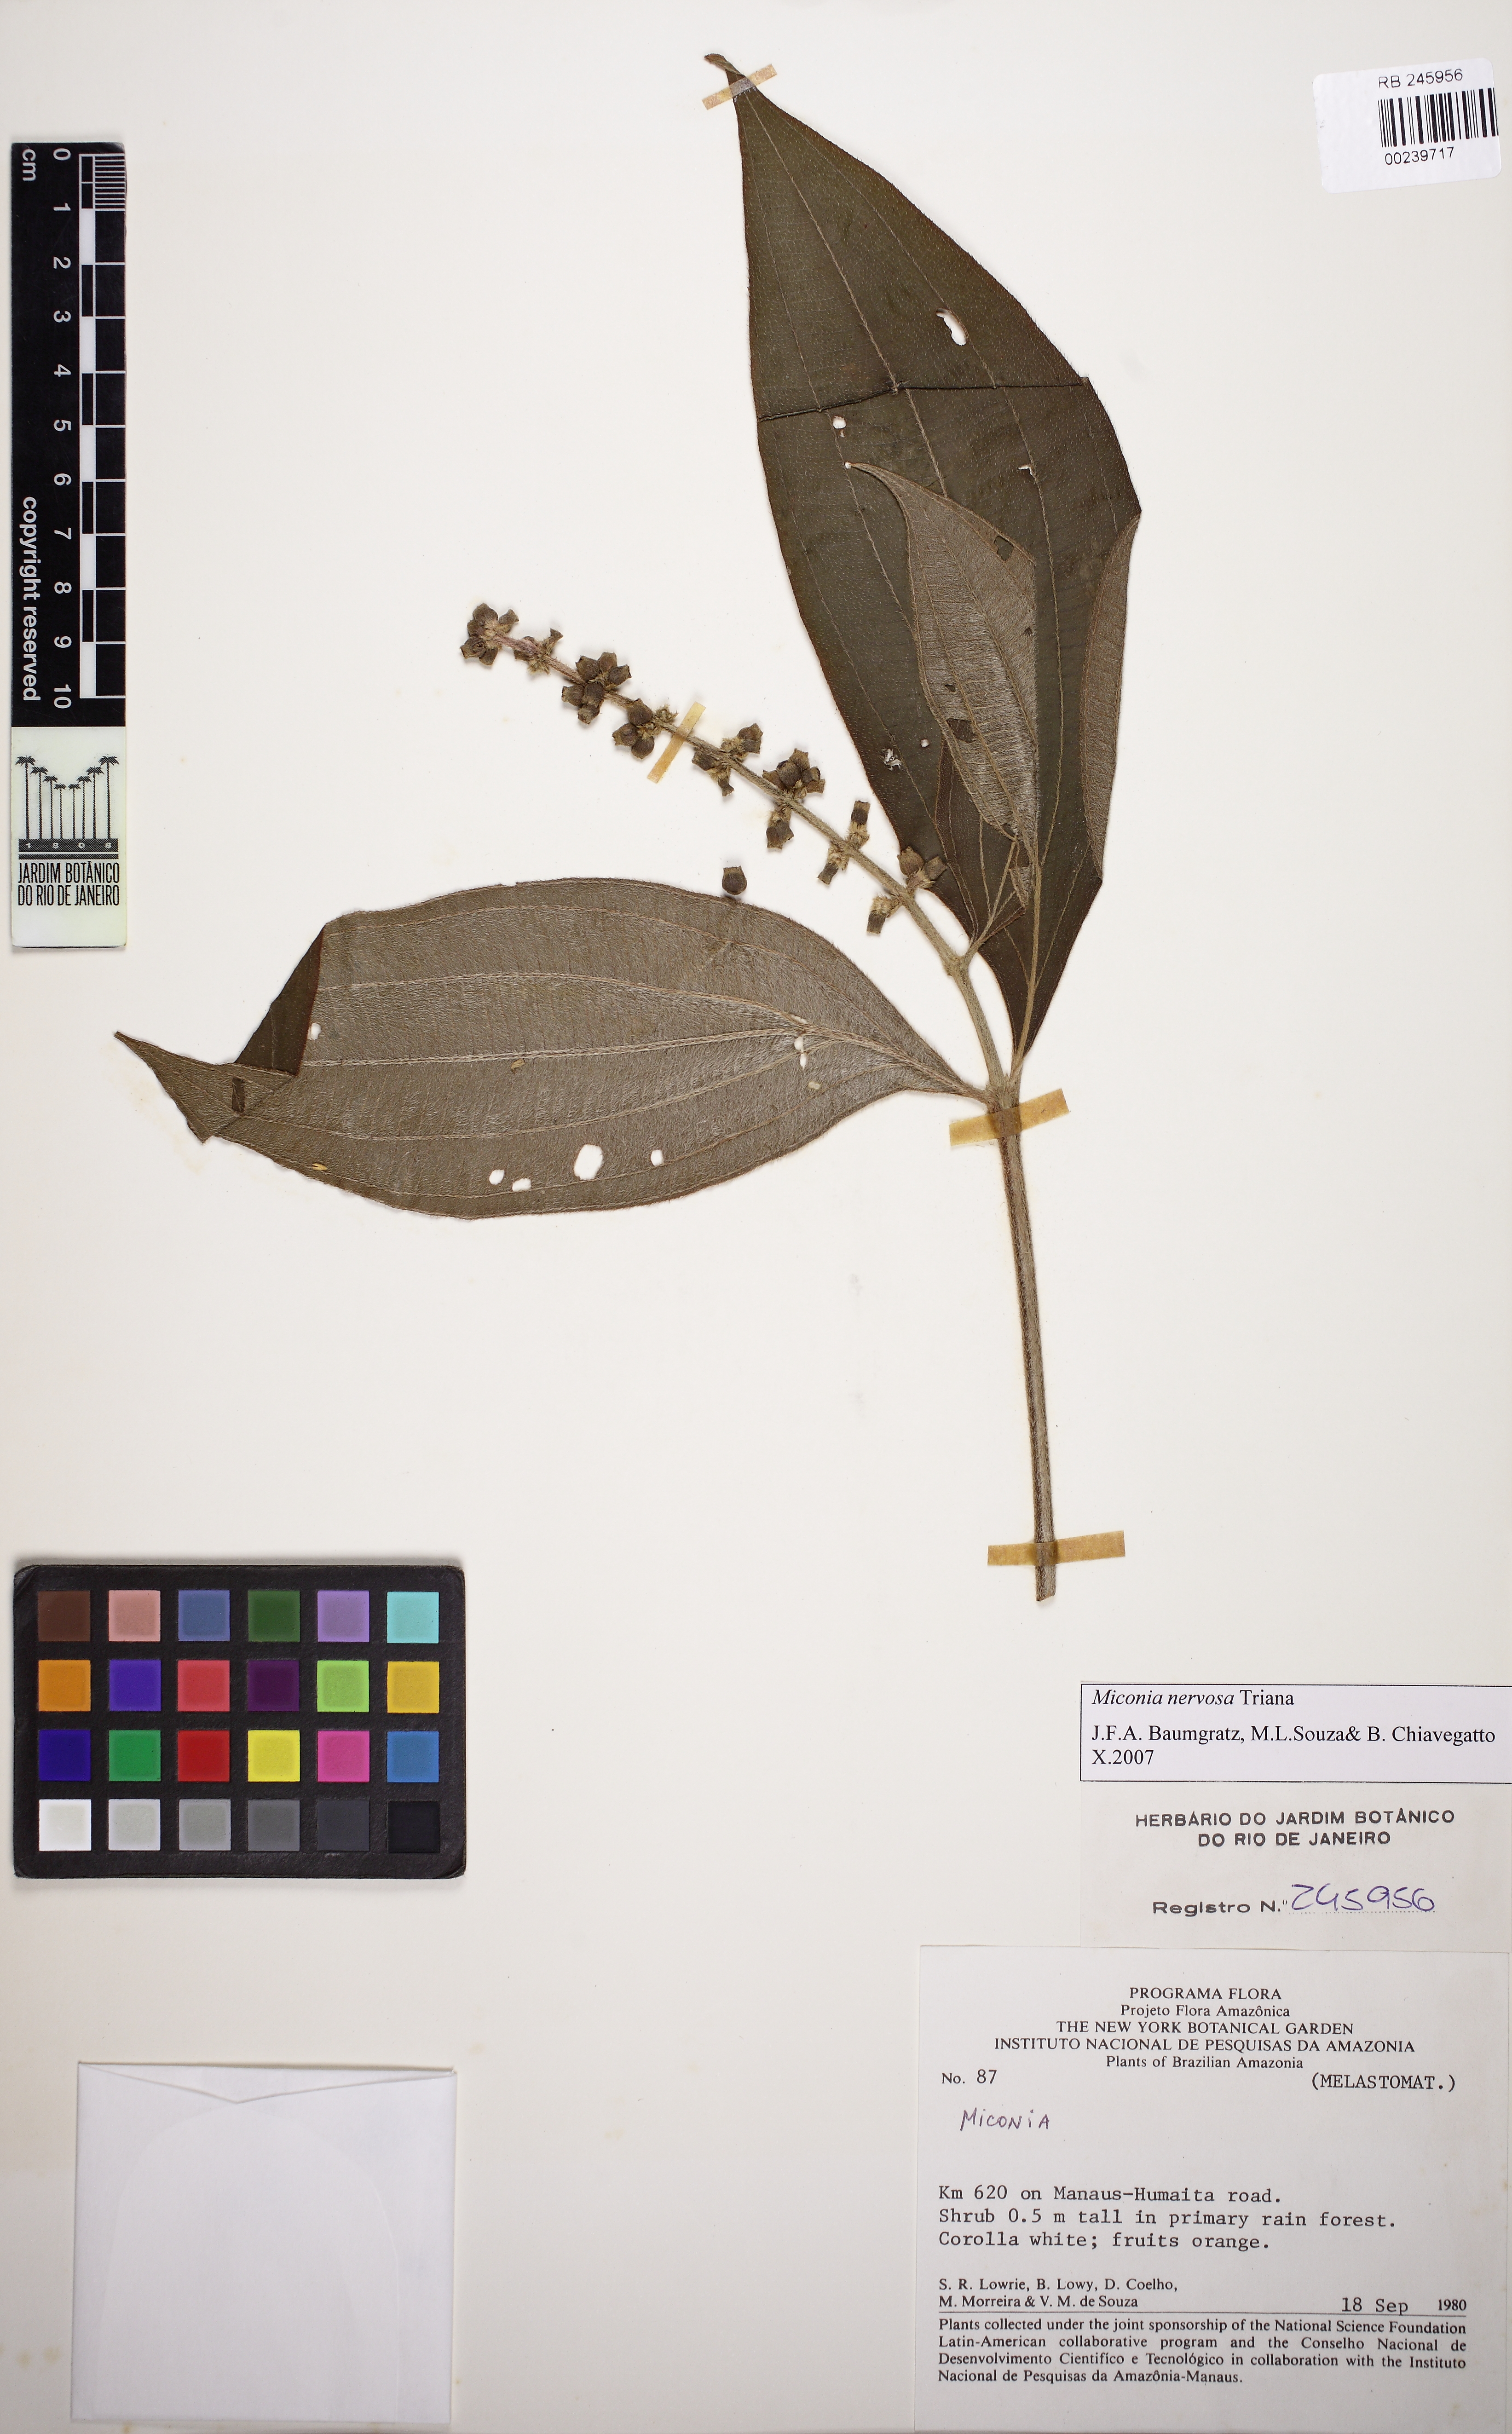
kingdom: Plantae
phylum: Tracheophyta
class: Magnoliopsida
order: Myrtales
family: Melastomataceae
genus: Miconia
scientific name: Miconia nervosa
